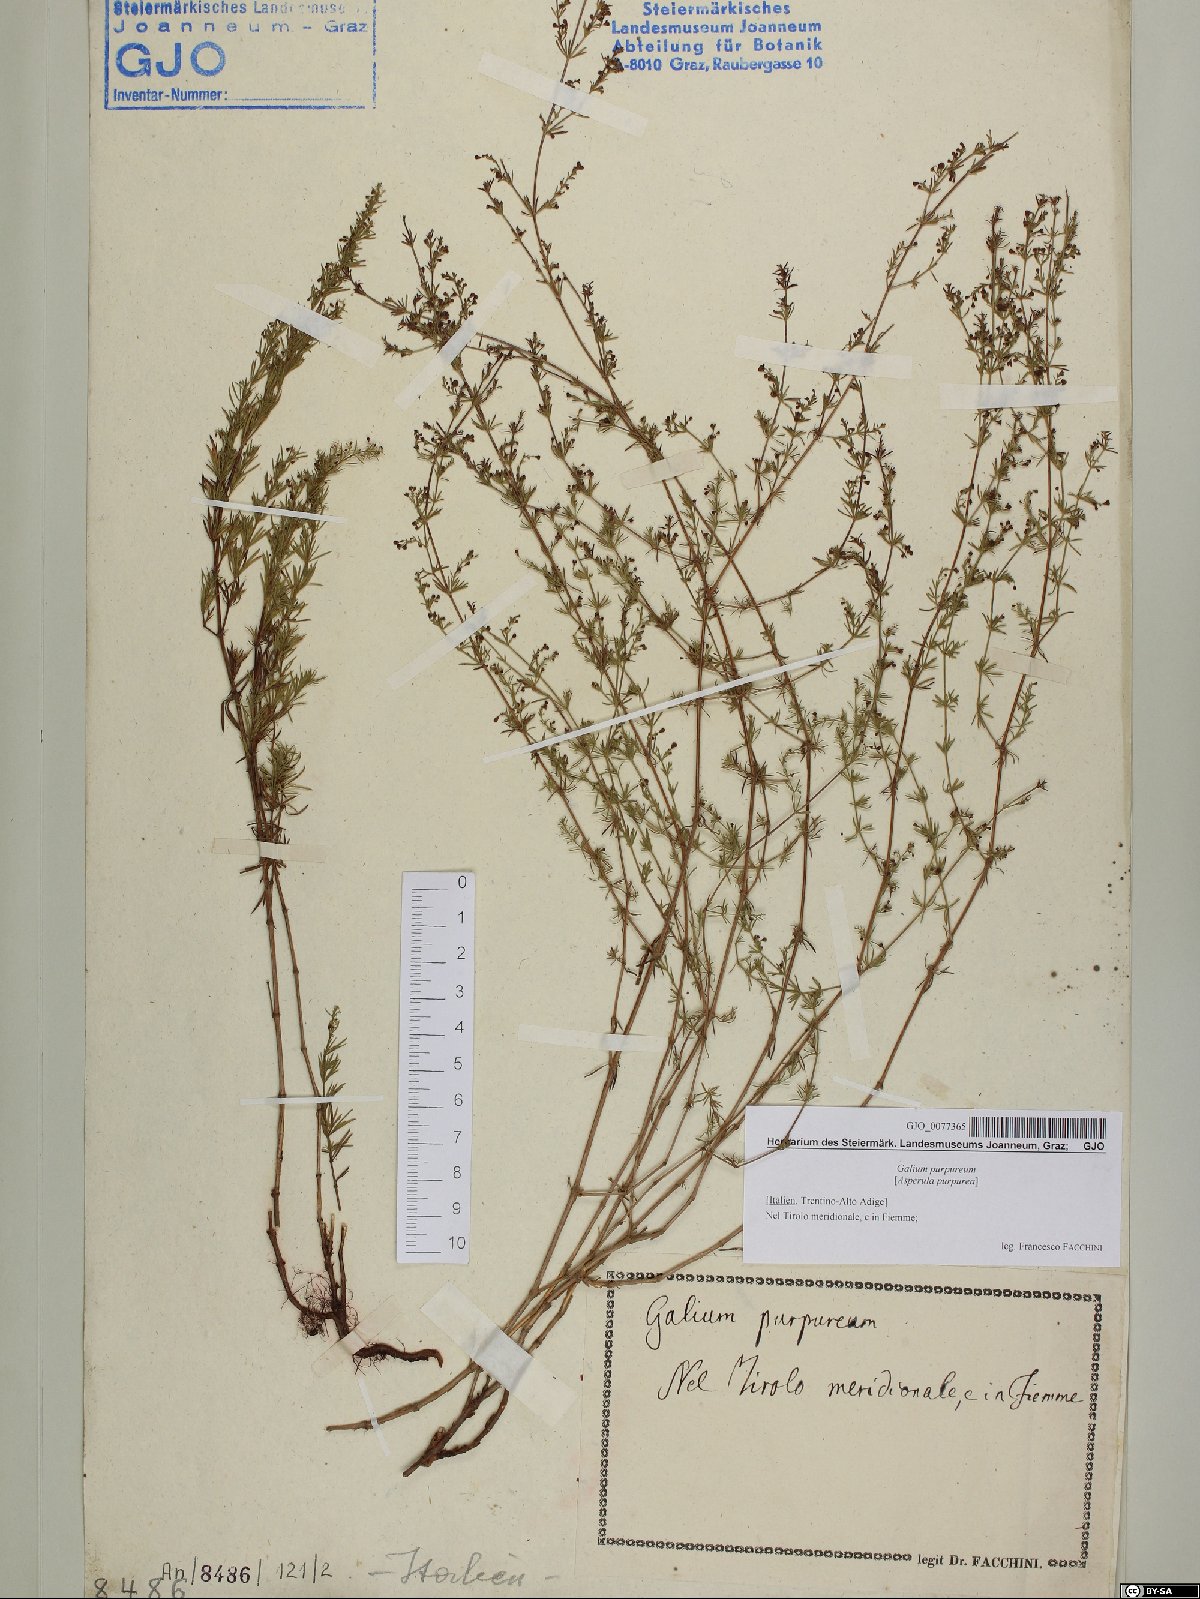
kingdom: Plantae
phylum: Tracheophyta
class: Magnoliopsida
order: Gentianales
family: Rubiaceae
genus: Thliphthisa
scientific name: Thliphthisa purpurea
